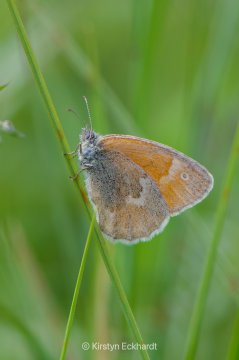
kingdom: Animalia
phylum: Arthropoda
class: Insecta
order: Lepidoptera
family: Nymphalidae
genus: Coenonympha
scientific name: Coenonympha tullia
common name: Large Heath
